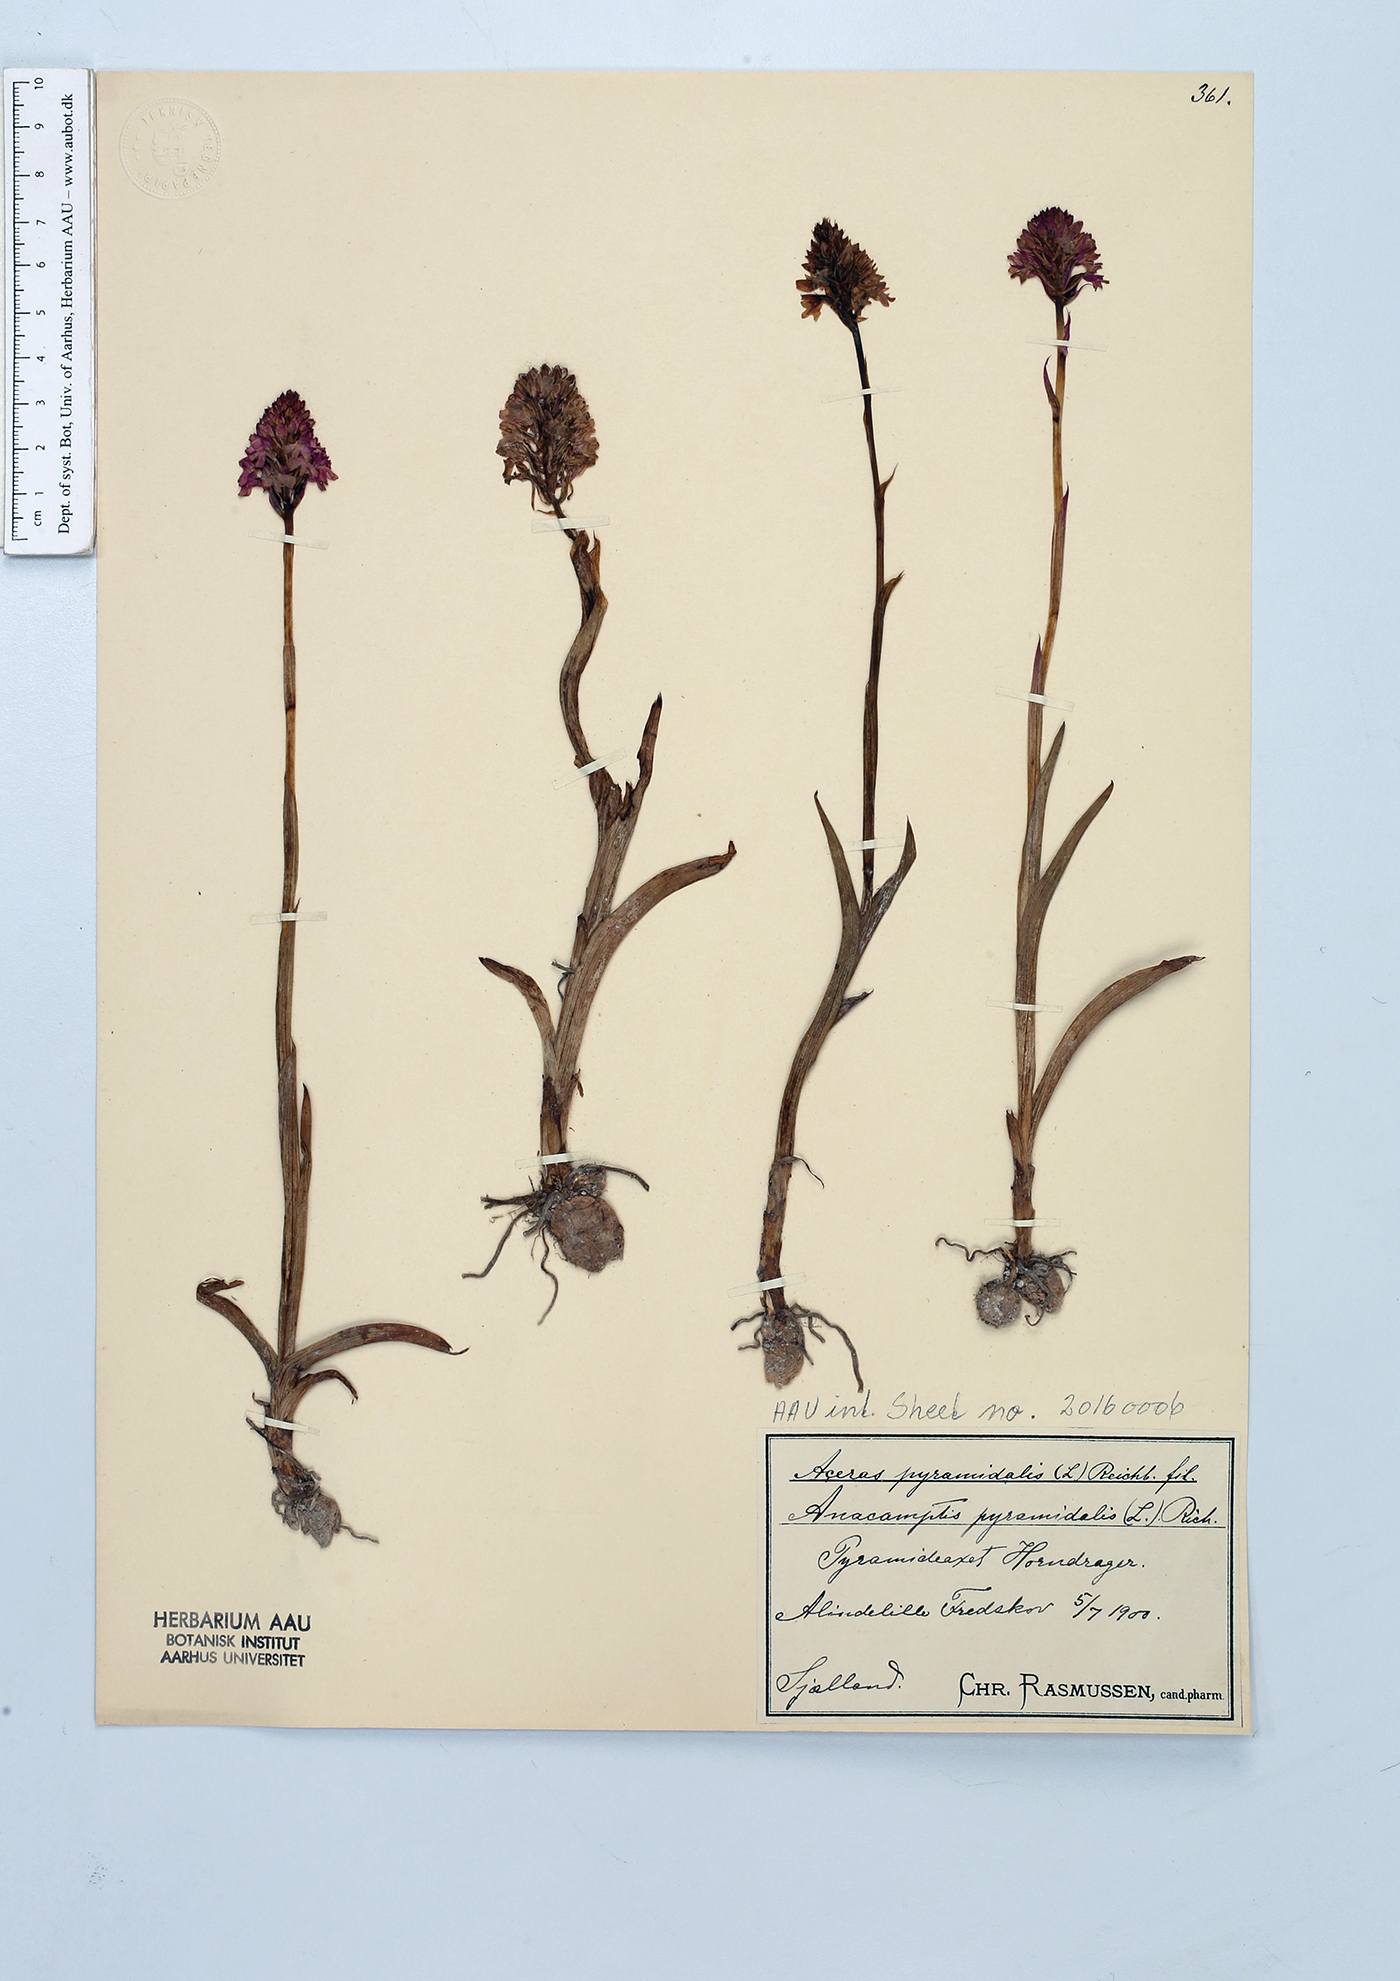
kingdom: Plantae
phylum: Tracheophyta
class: Liliopsida
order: Asparagales
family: Orchidaceae
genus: Anacamptis
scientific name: Anacamptis pyramidalis
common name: Pyramidal orchid
